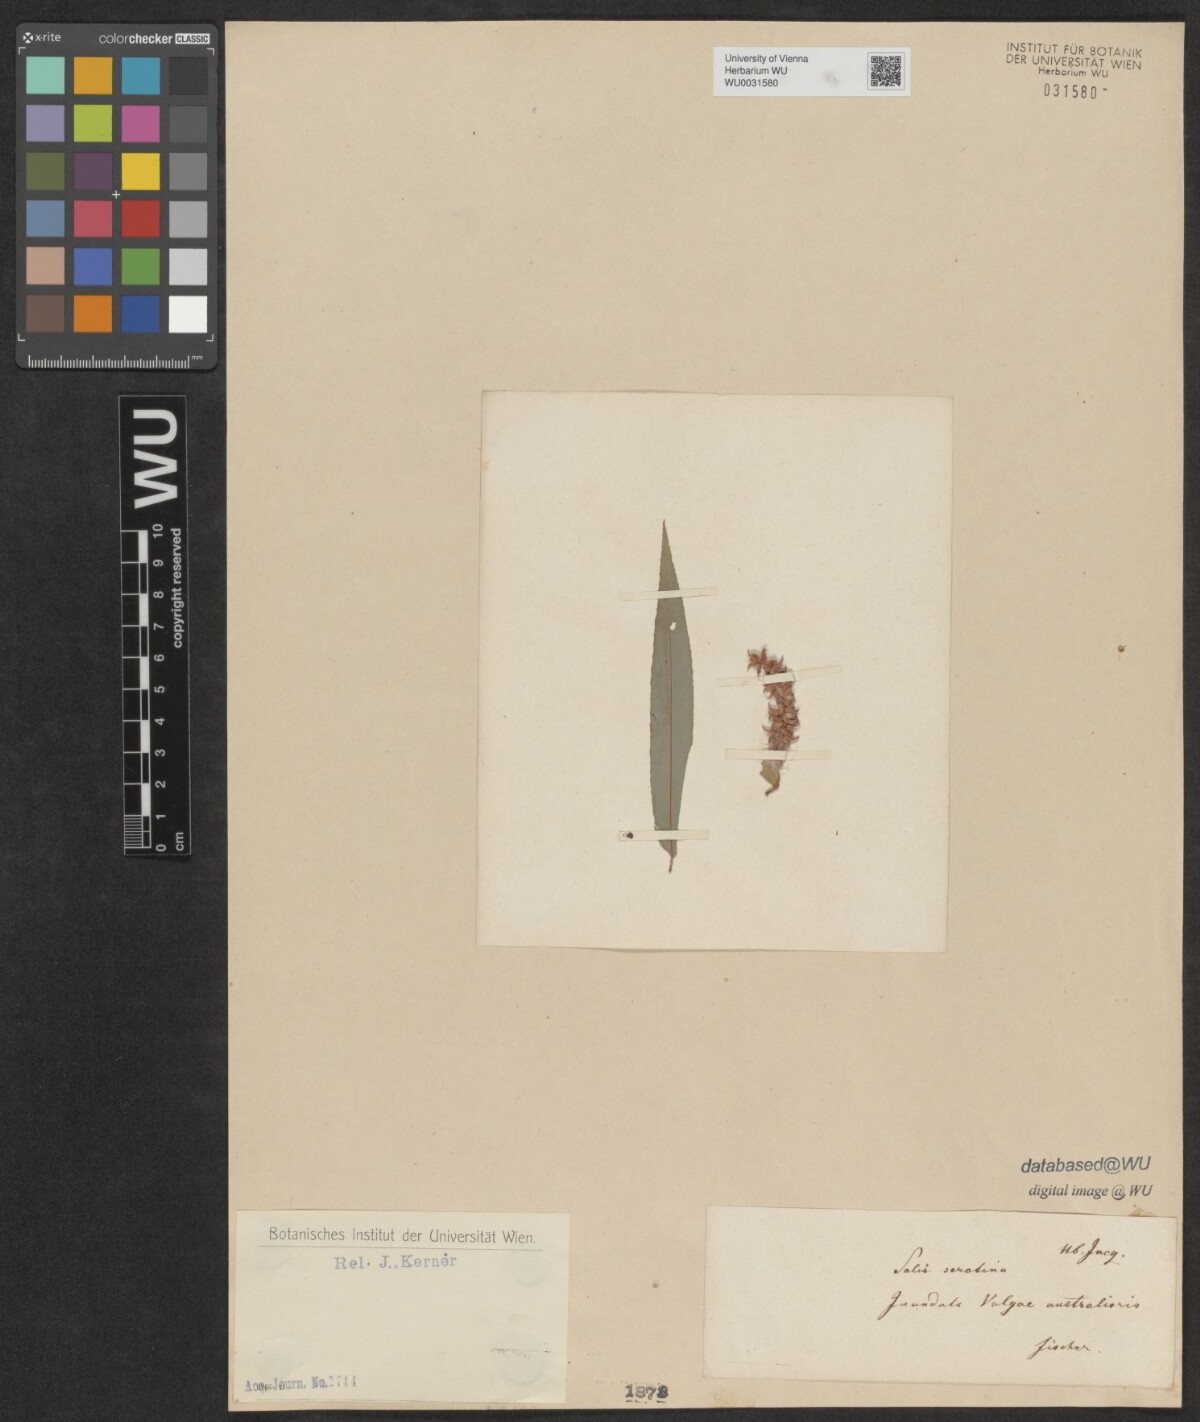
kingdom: Plantae
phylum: Tracheophyta
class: Magnoliopsida
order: Malpighiales
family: Salicaceae
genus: Salix
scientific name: Salix viminalis
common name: Osier
